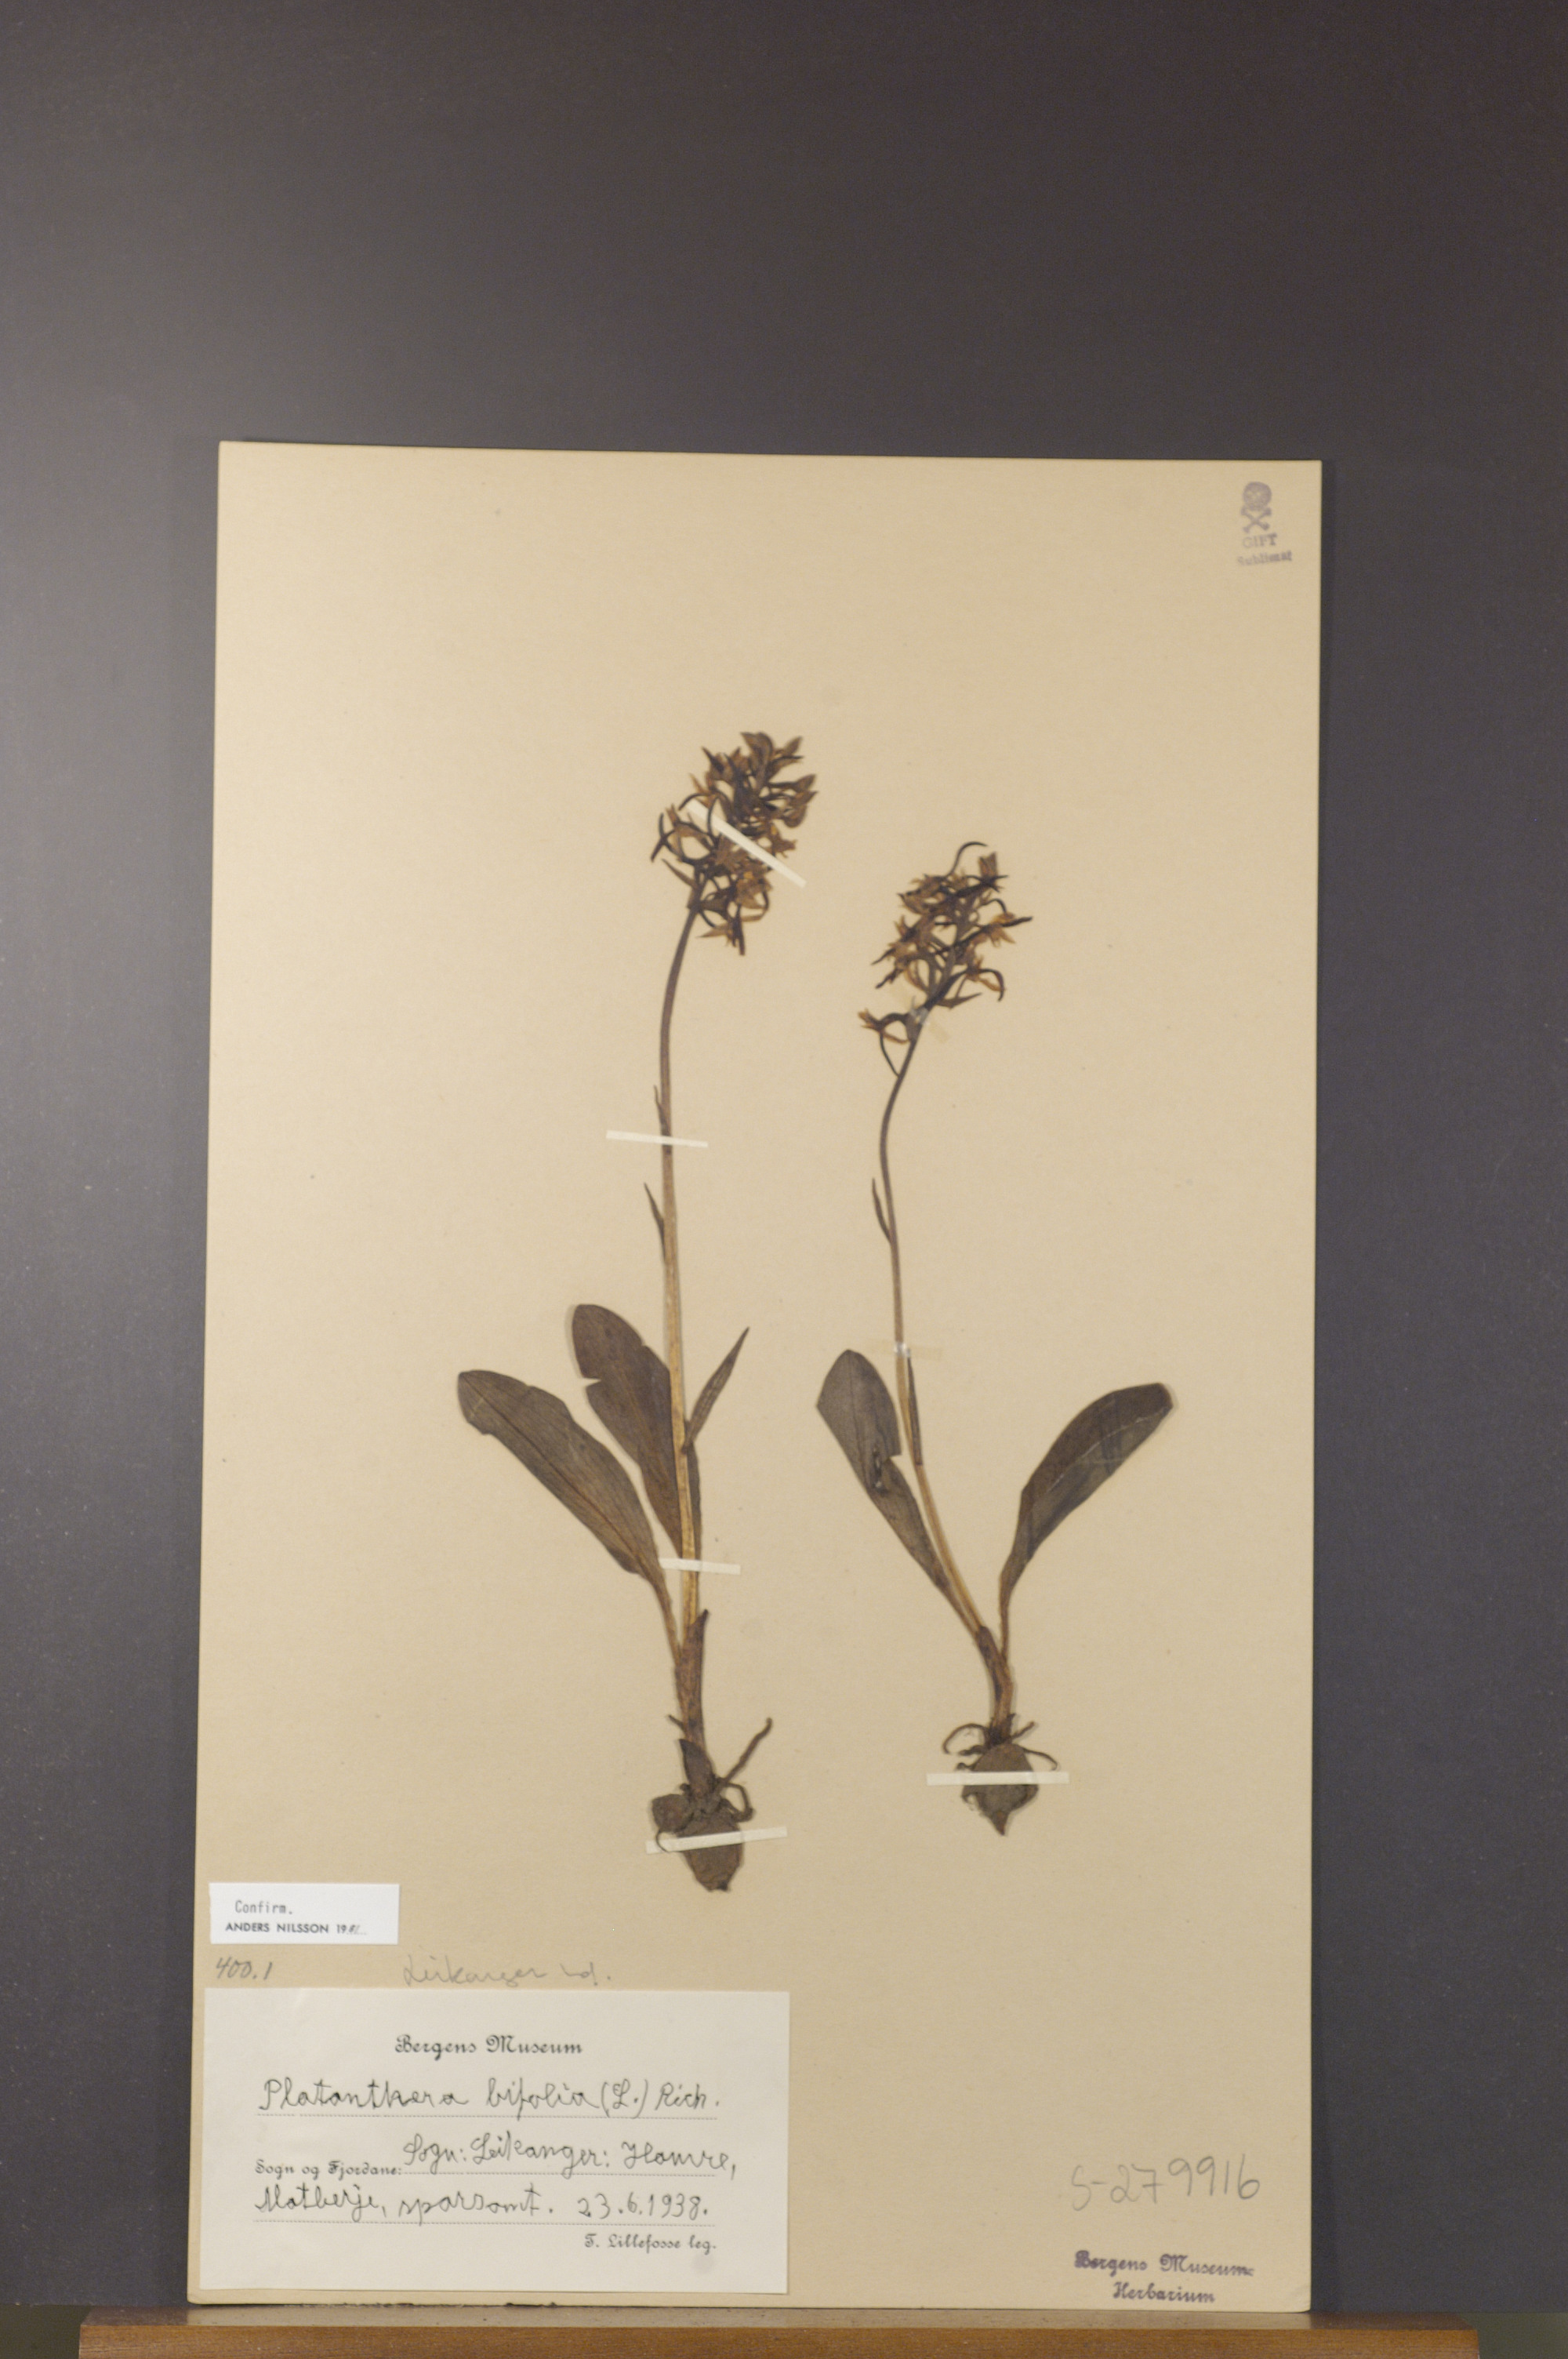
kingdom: Plantae
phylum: Tracheophyta
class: Liliopsida
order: Asparagales
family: Orchidaceae
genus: Platanthera
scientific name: Platanthera bifolia
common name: Lesser butterfly-orchid
